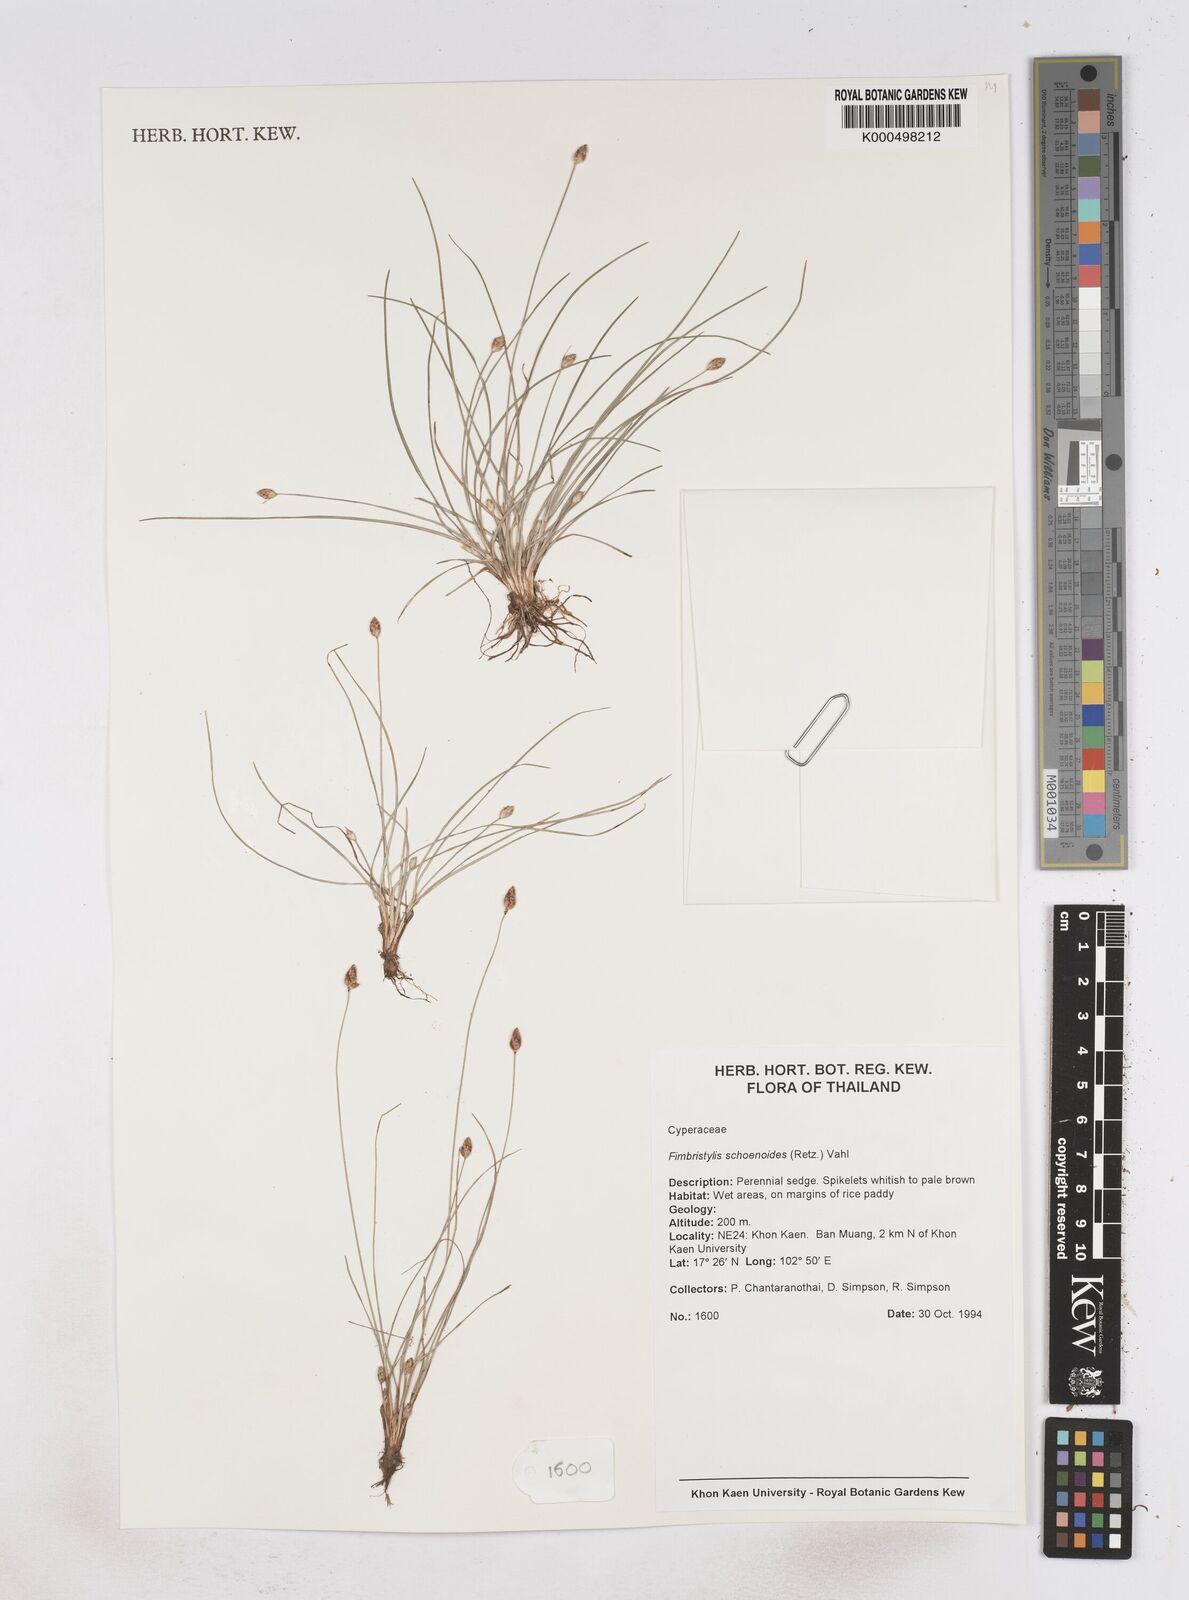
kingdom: Plantae
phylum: Tracheophyta
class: Liliopsida
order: Poales
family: Cyperaceae
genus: Fimbristylis
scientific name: Fimbristylis schoenoides
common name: Ditch fimbry
